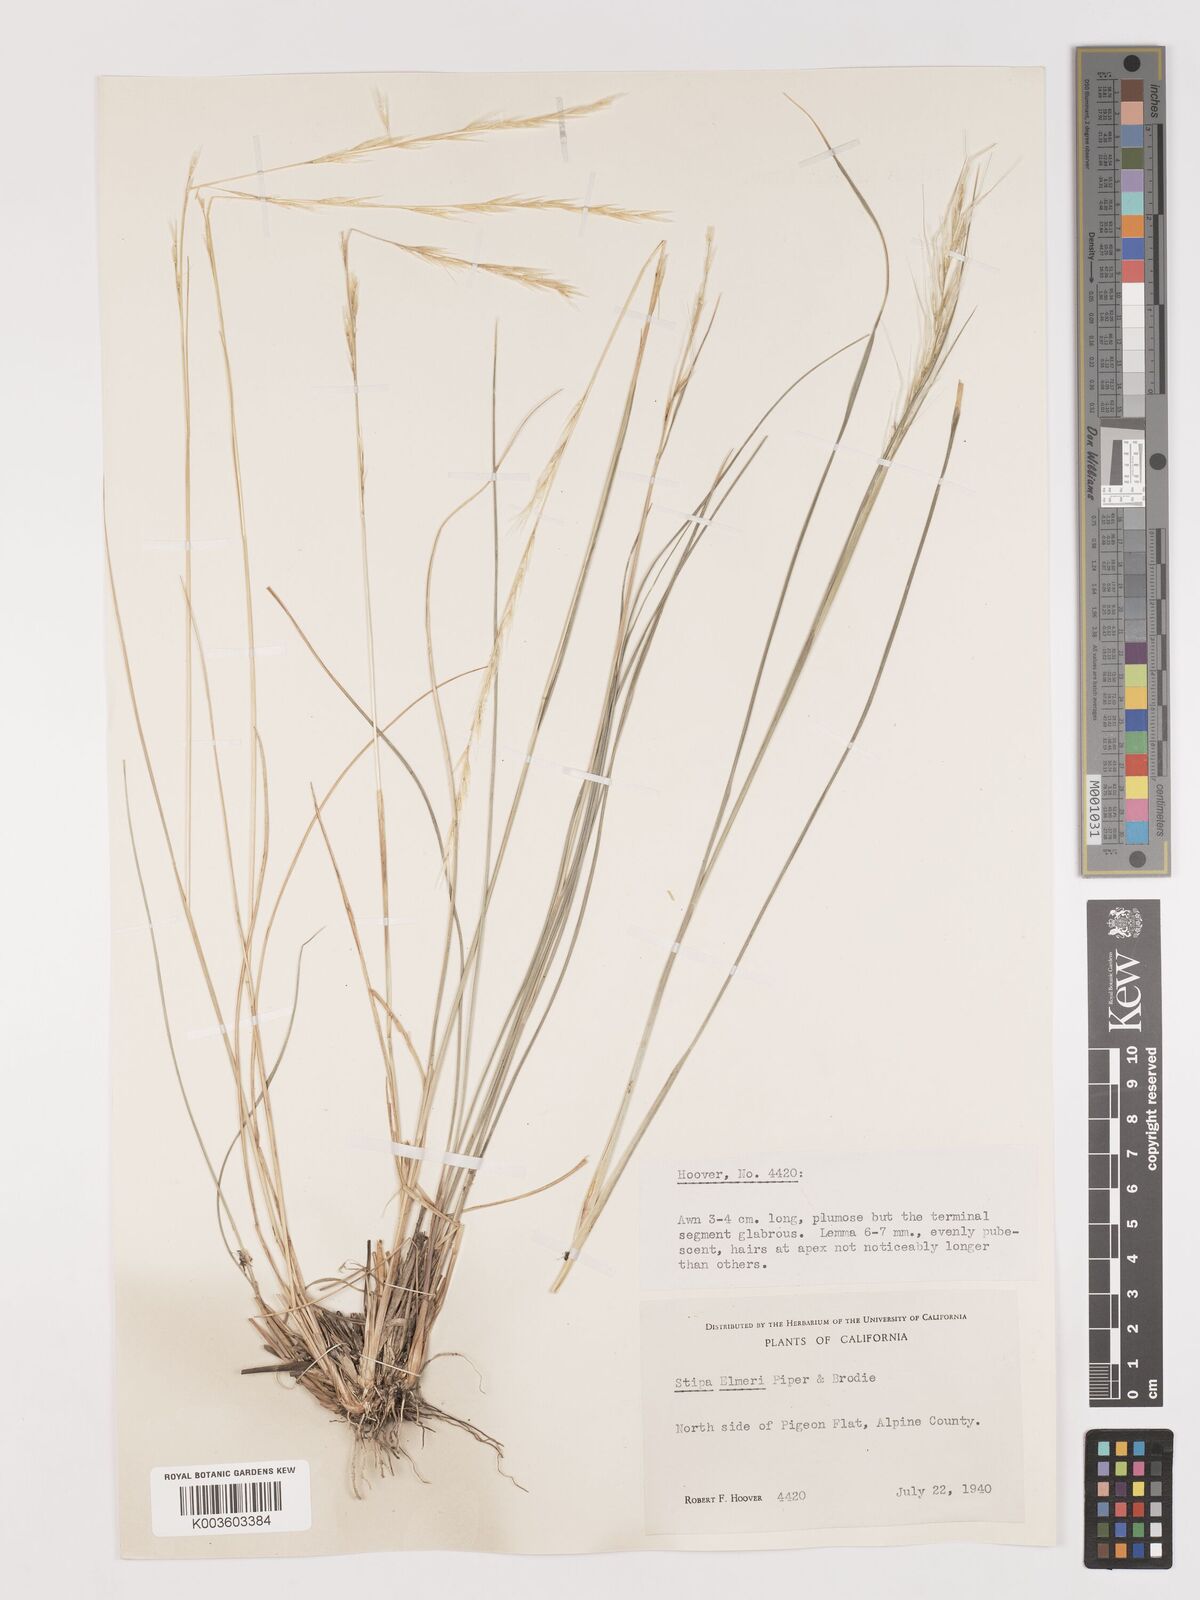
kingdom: Plantae
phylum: Tracheophyta
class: Liliopsida
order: Poales
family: Poaceae
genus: Eriocoma
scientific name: Eriocoma thurberiana
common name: Thurber's needlegrass
